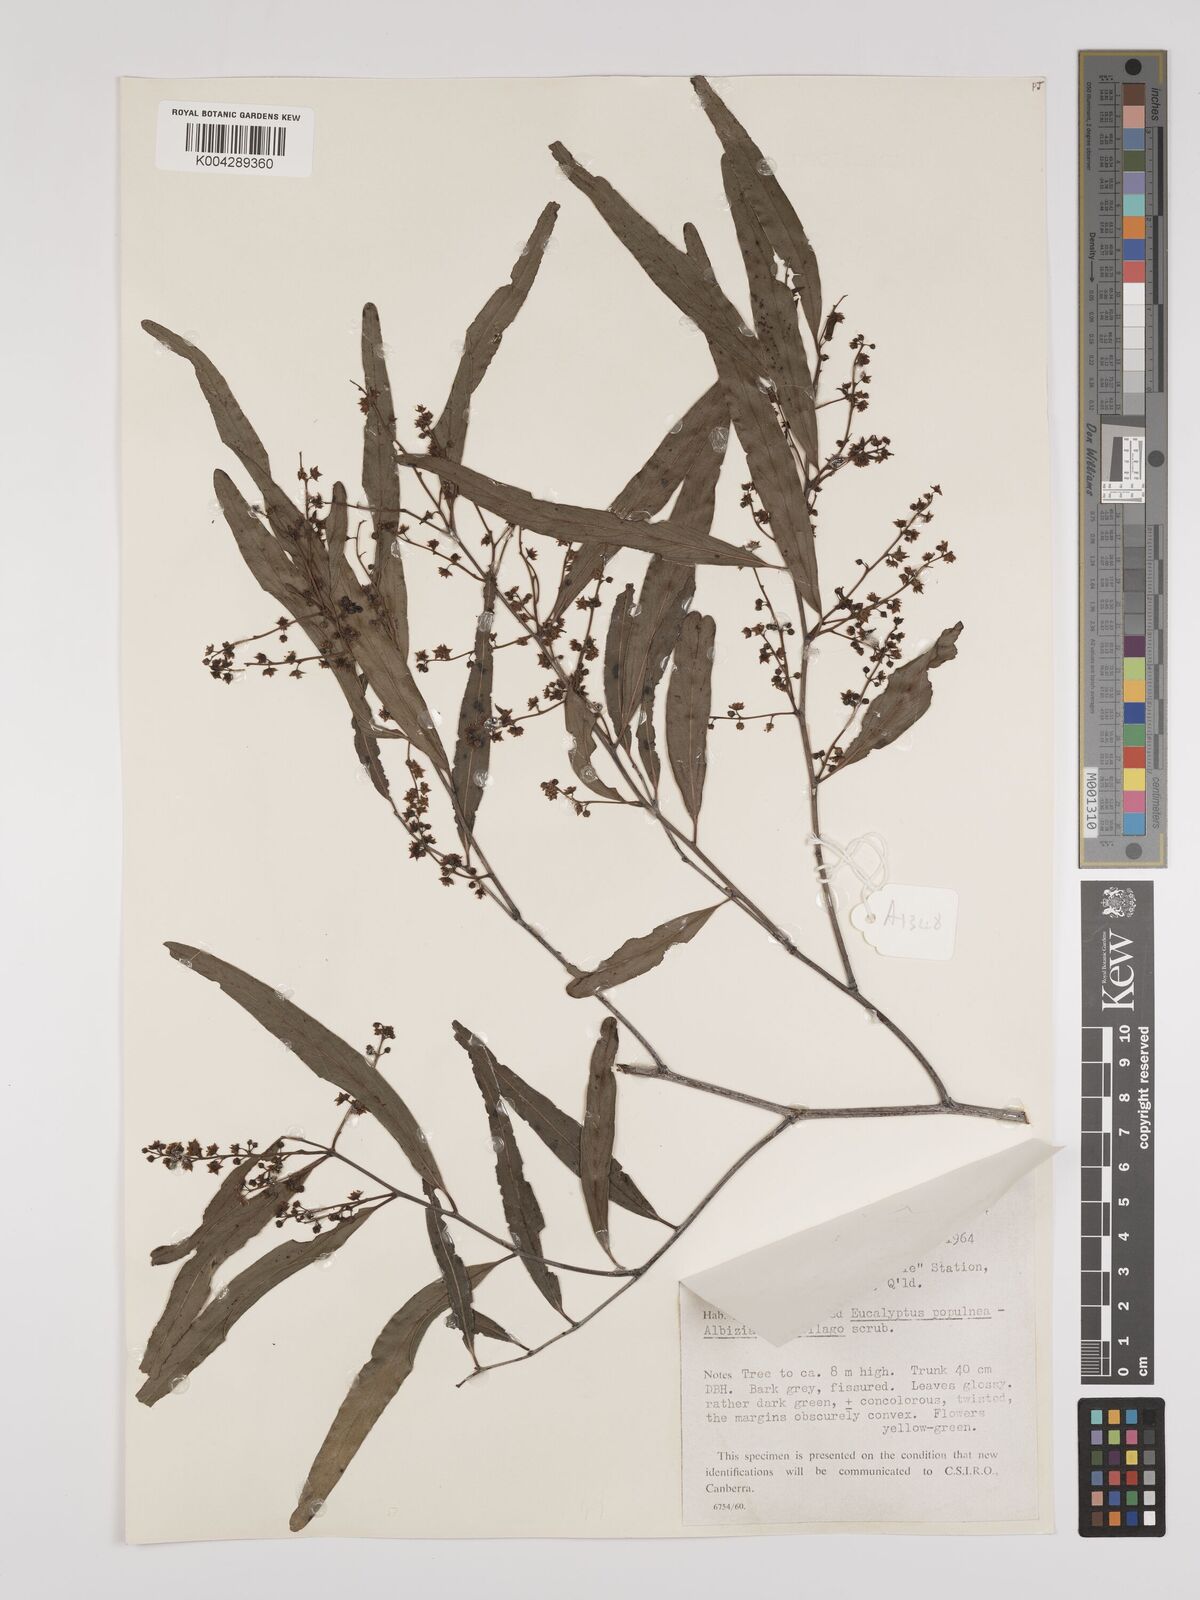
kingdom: Plantae
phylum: Tracheophyta
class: Magnoliopsida
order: Rosales
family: Rhamnaceae
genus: Ventilago
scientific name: Ventilago viminalis
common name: Medicine-bark
